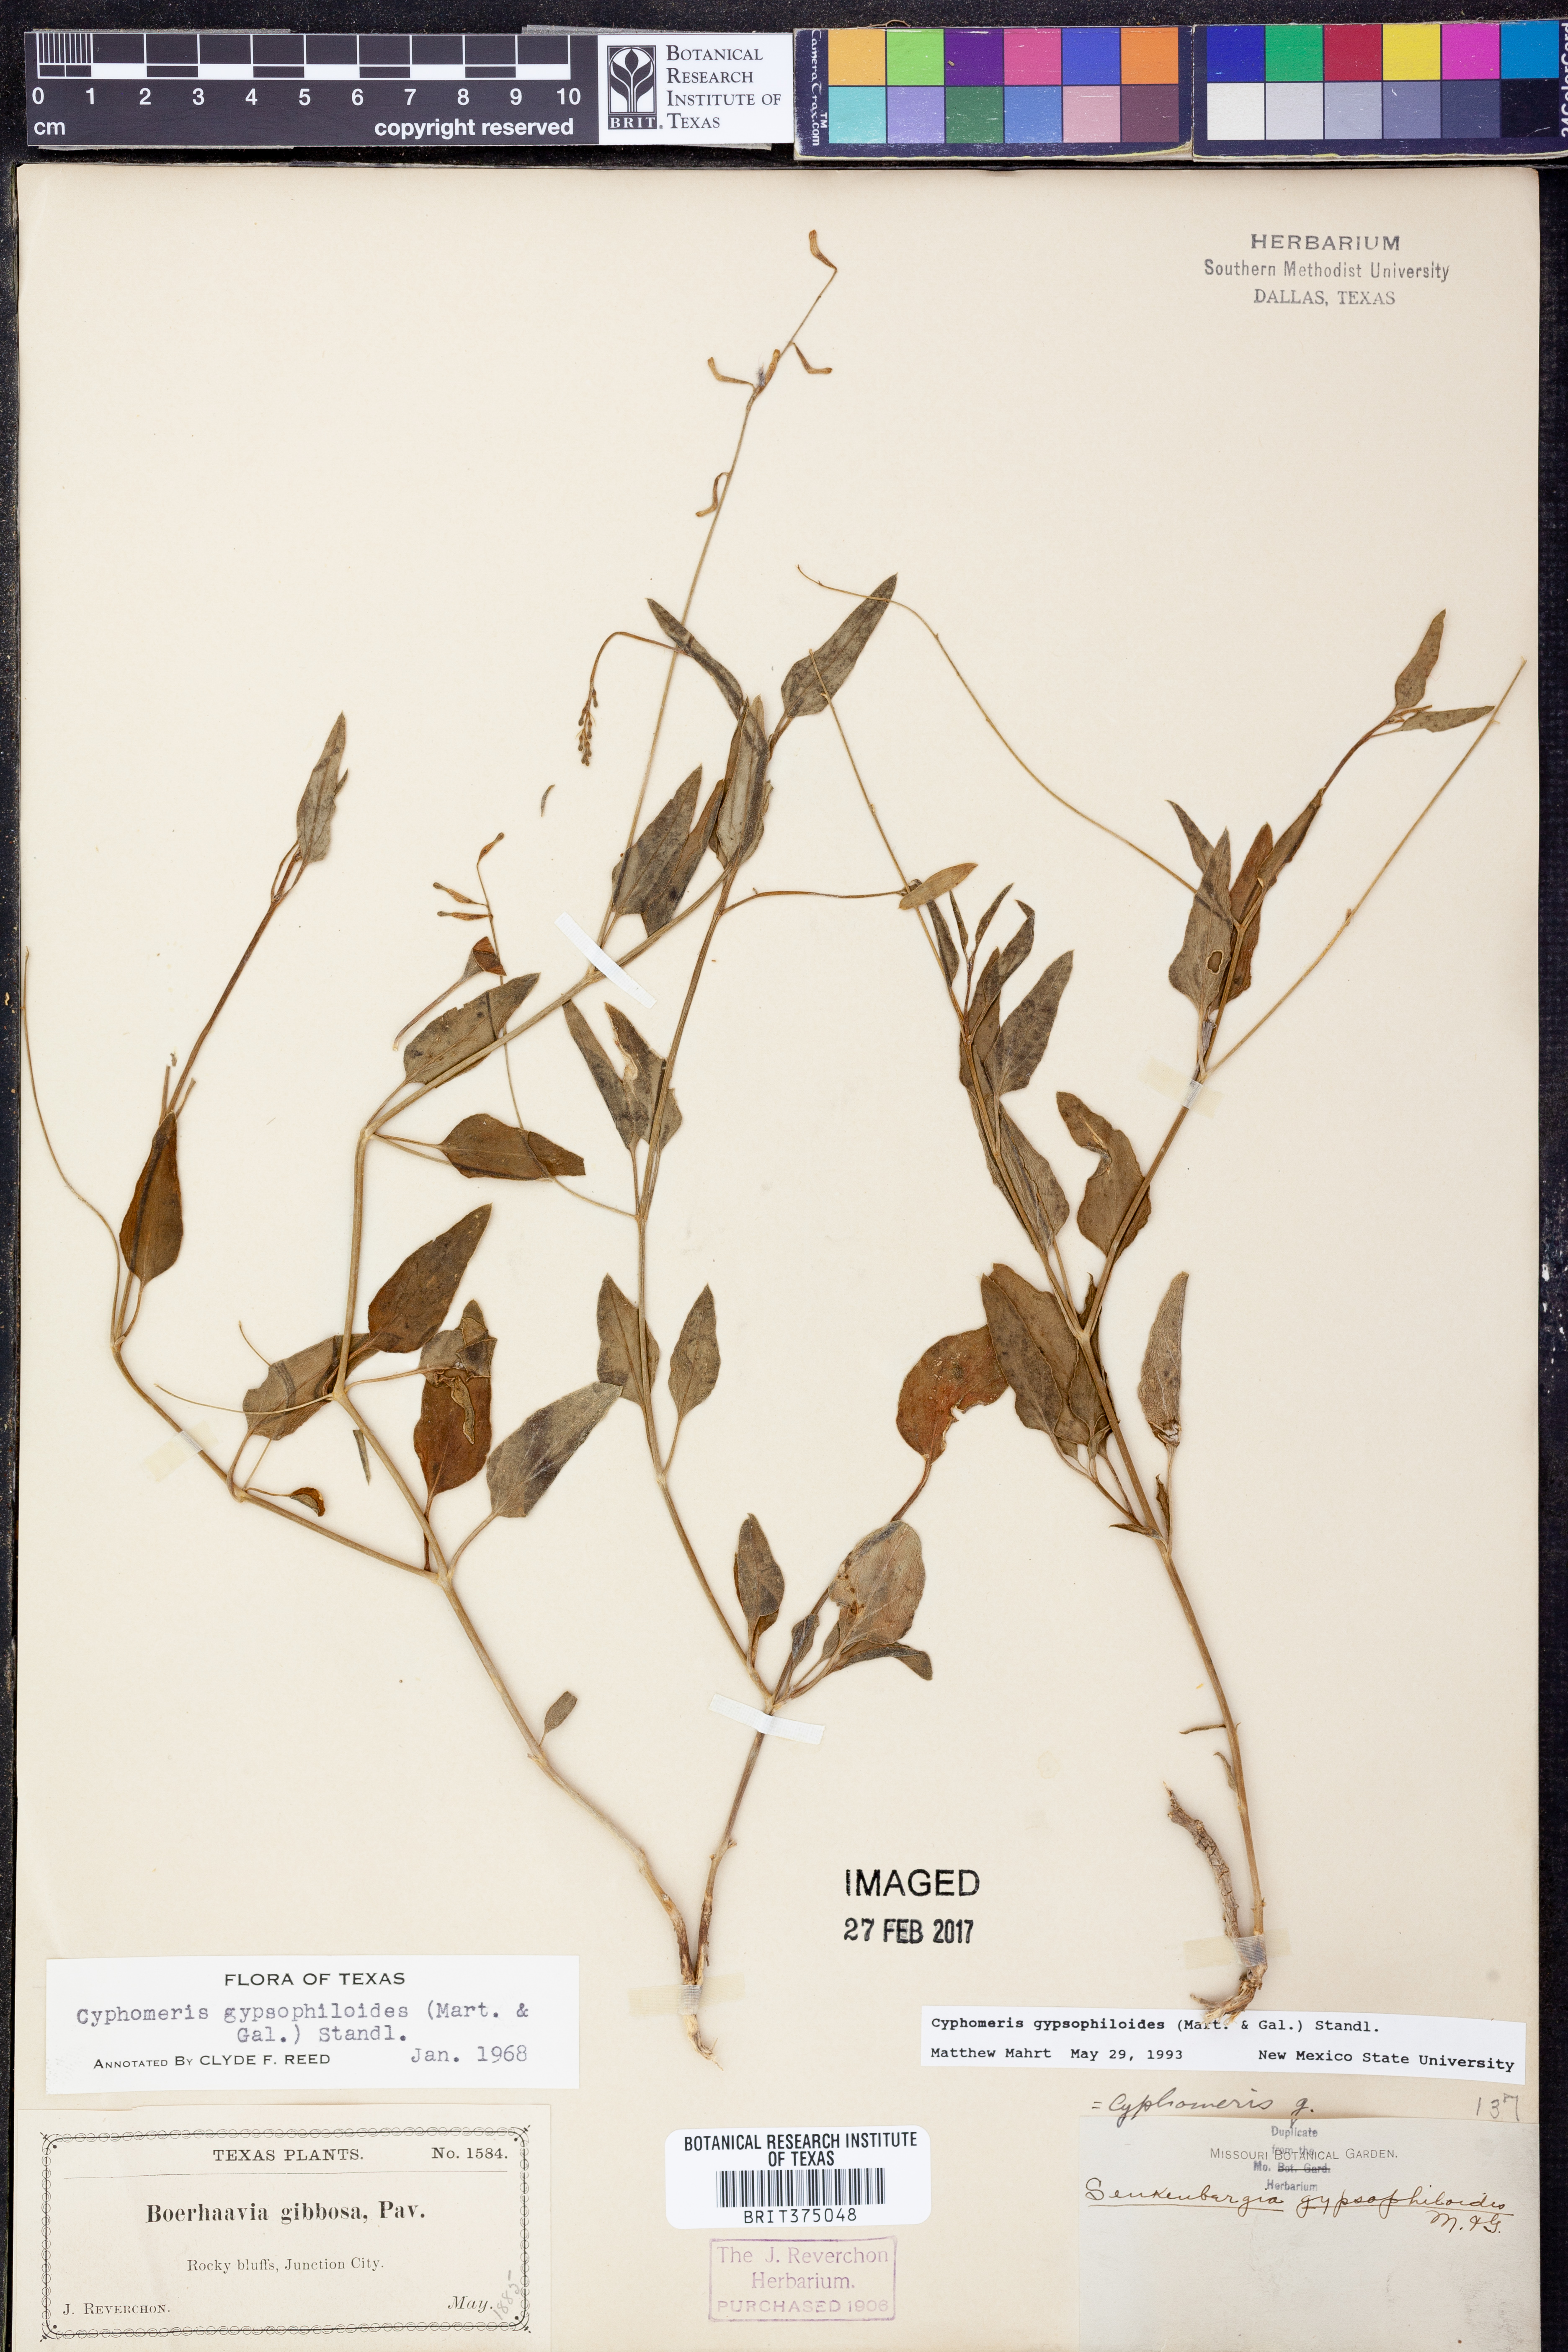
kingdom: Plantae
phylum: Tracheophyta
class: Magnoliopsida
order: Caryophyllales
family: Nyctaginaceae
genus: Cyphomeris
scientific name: Cyphomeris gypsophiloides
